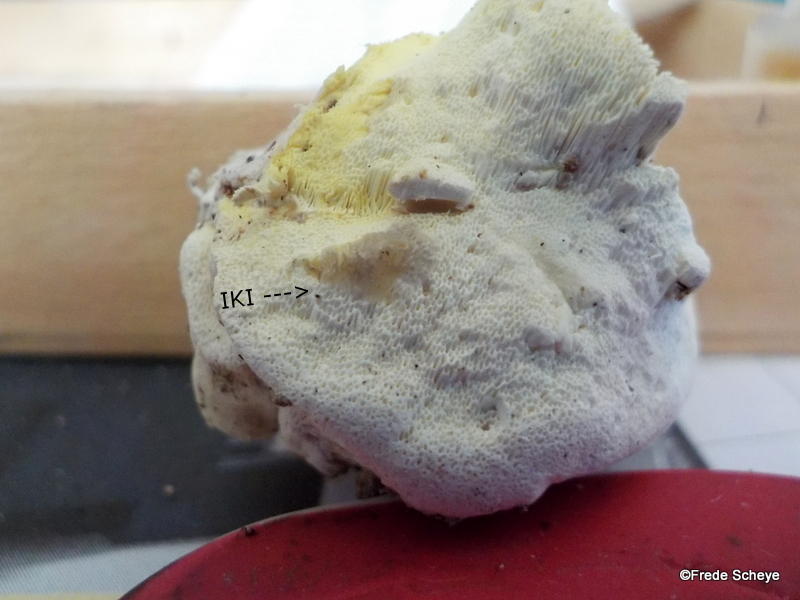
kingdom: Fungi
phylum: Basidiomycota
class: Agaricomycetes
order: Polyporales
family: Fomitopsidaceae
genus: Daedalea
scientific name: Daedalea xantha
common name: gul sejporesvamp
